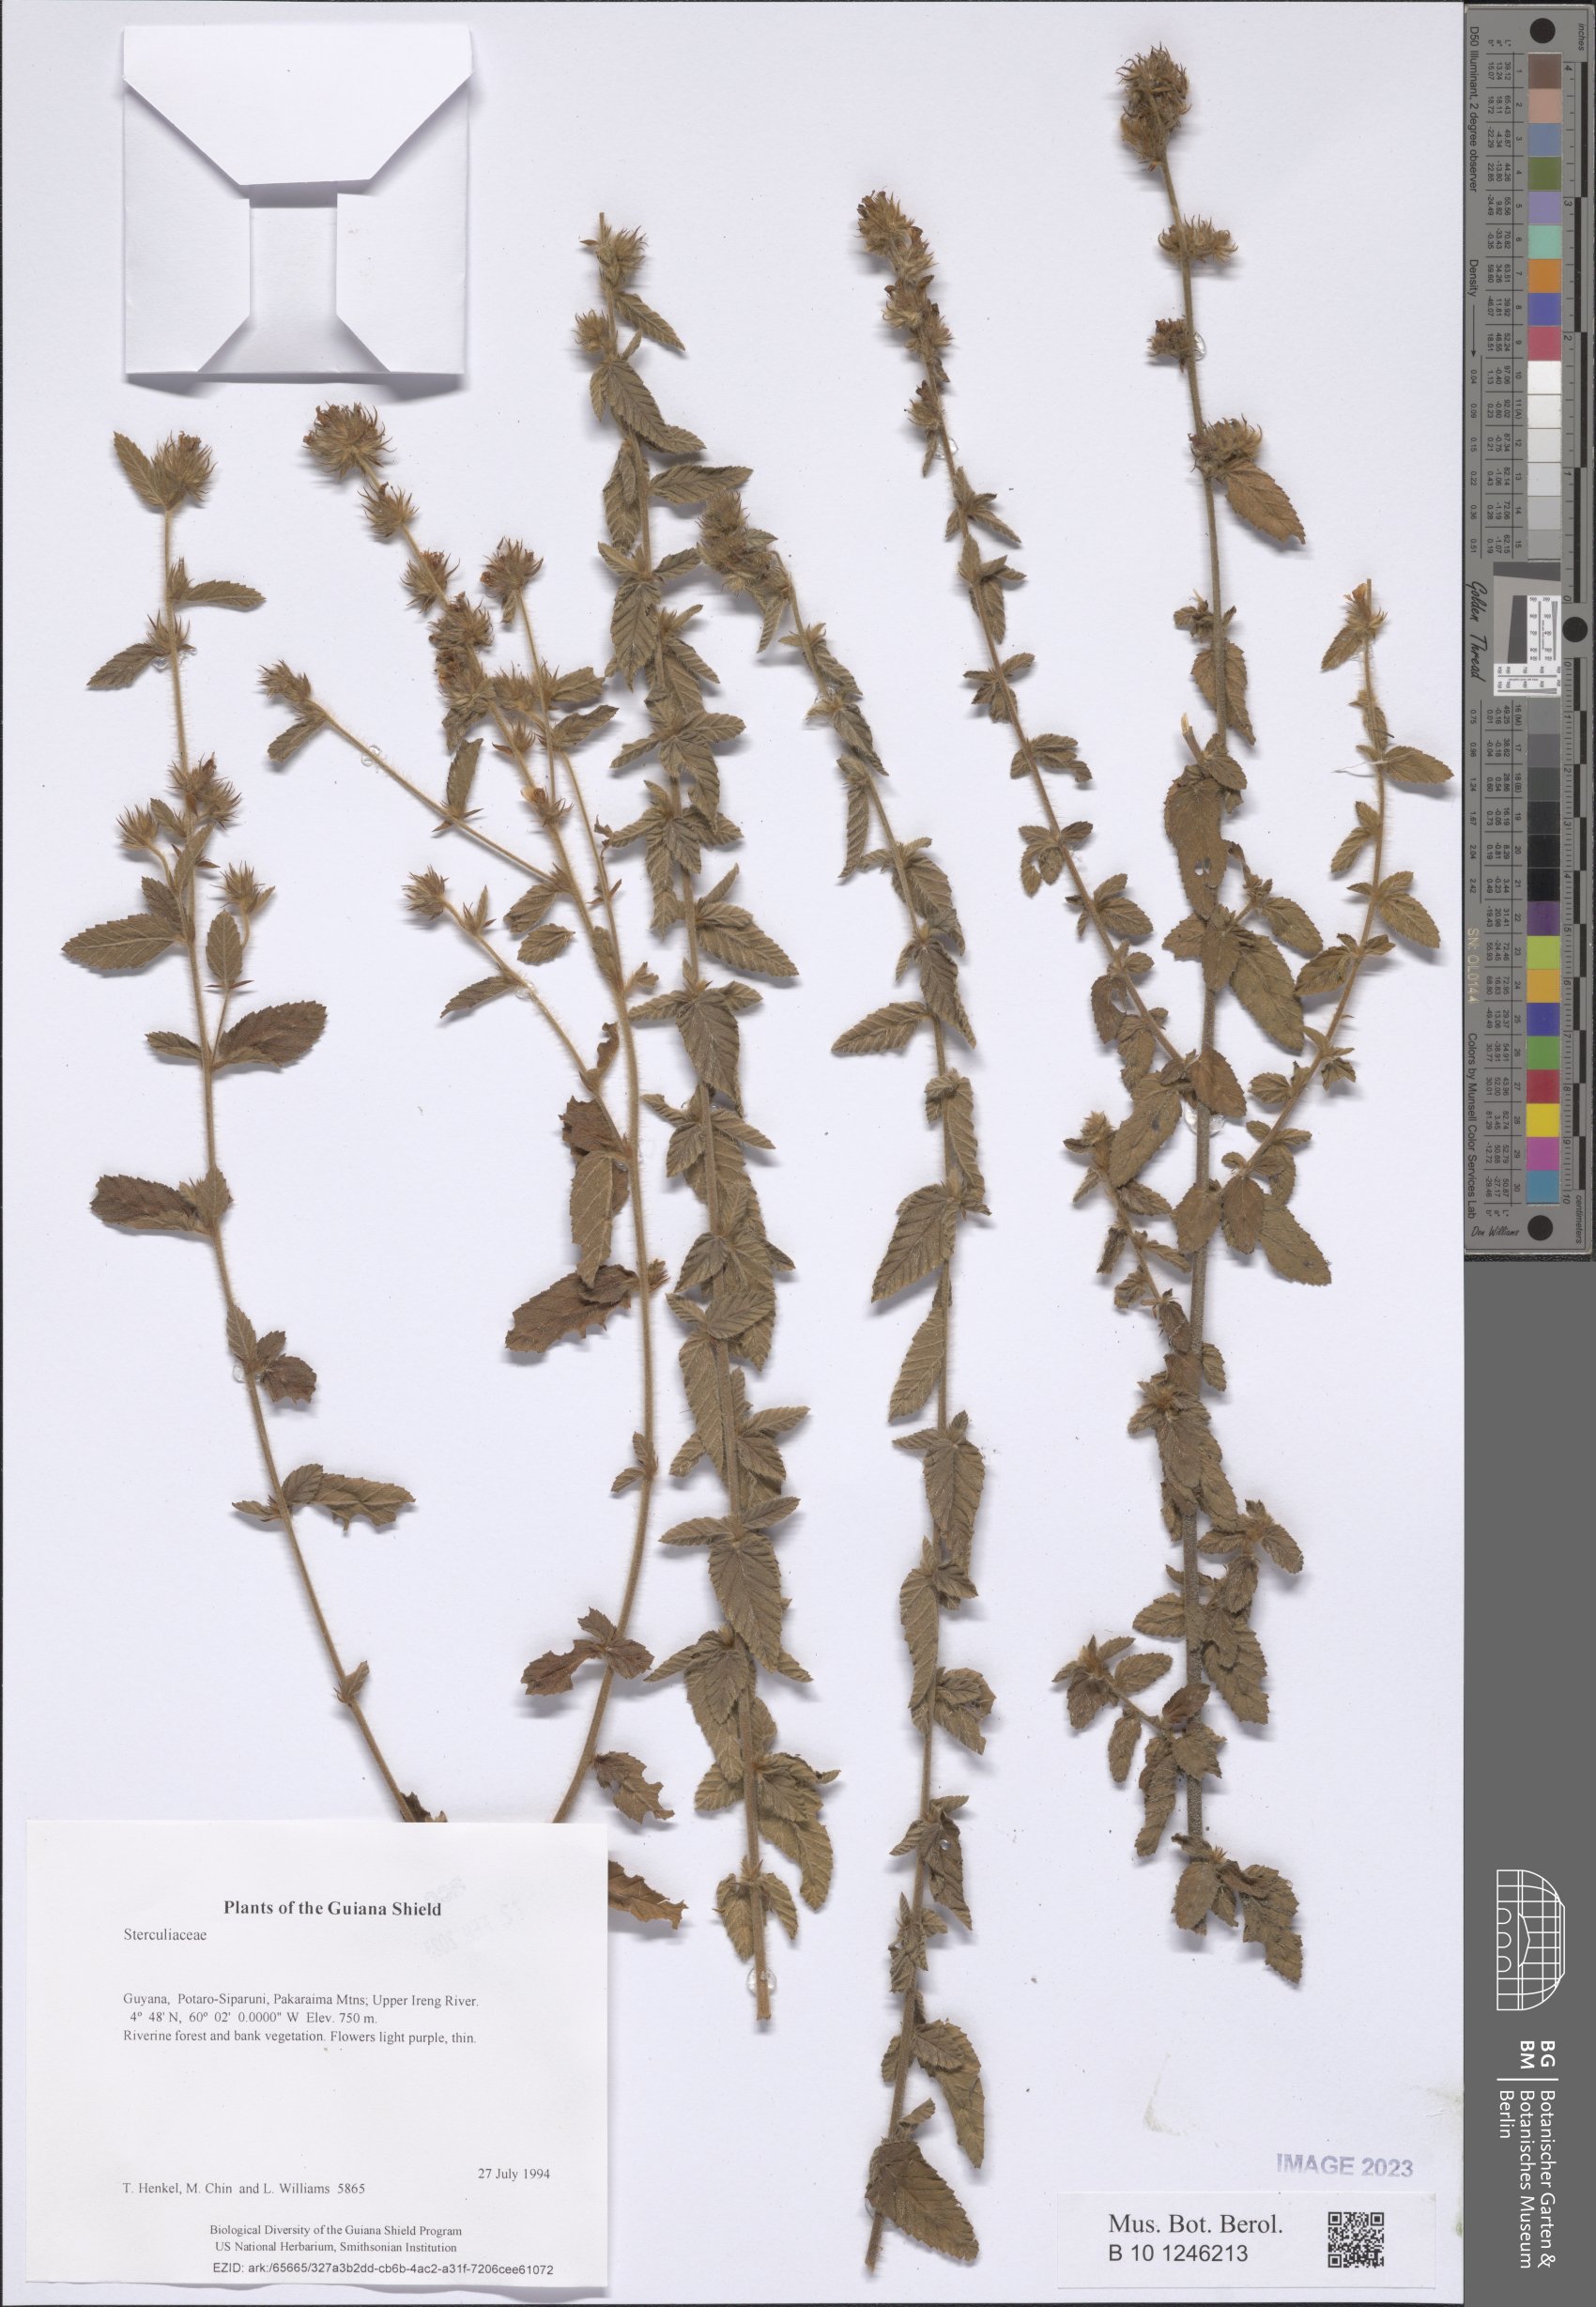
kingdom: Plantae
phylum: Tracheophyta
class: Magnoliopsida
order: Malvales
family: Sterculiaceae
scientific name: Sterculiaceae
